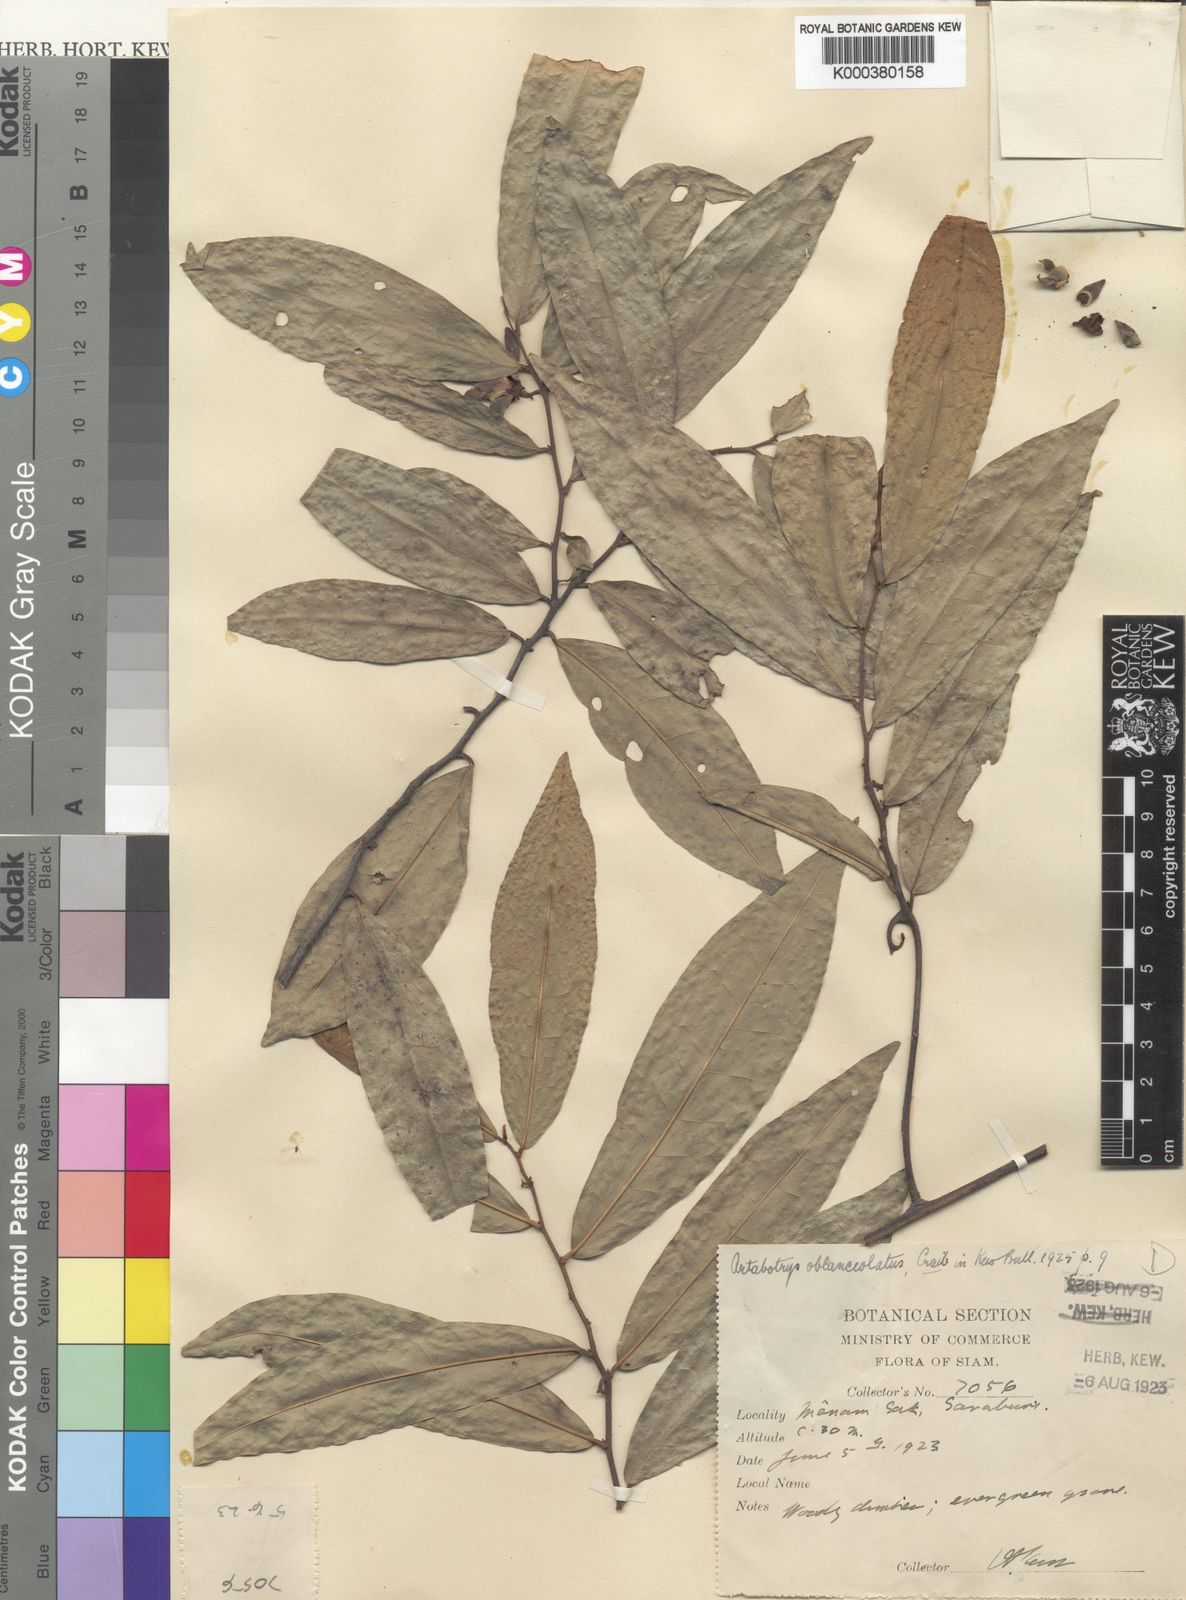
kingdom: Plantae
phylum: Tracheophyta
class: Magnoliopsida
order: Magnoliales
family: Annonaceae
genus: Artabotrys
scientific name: Artabotrys oblanceolatus
